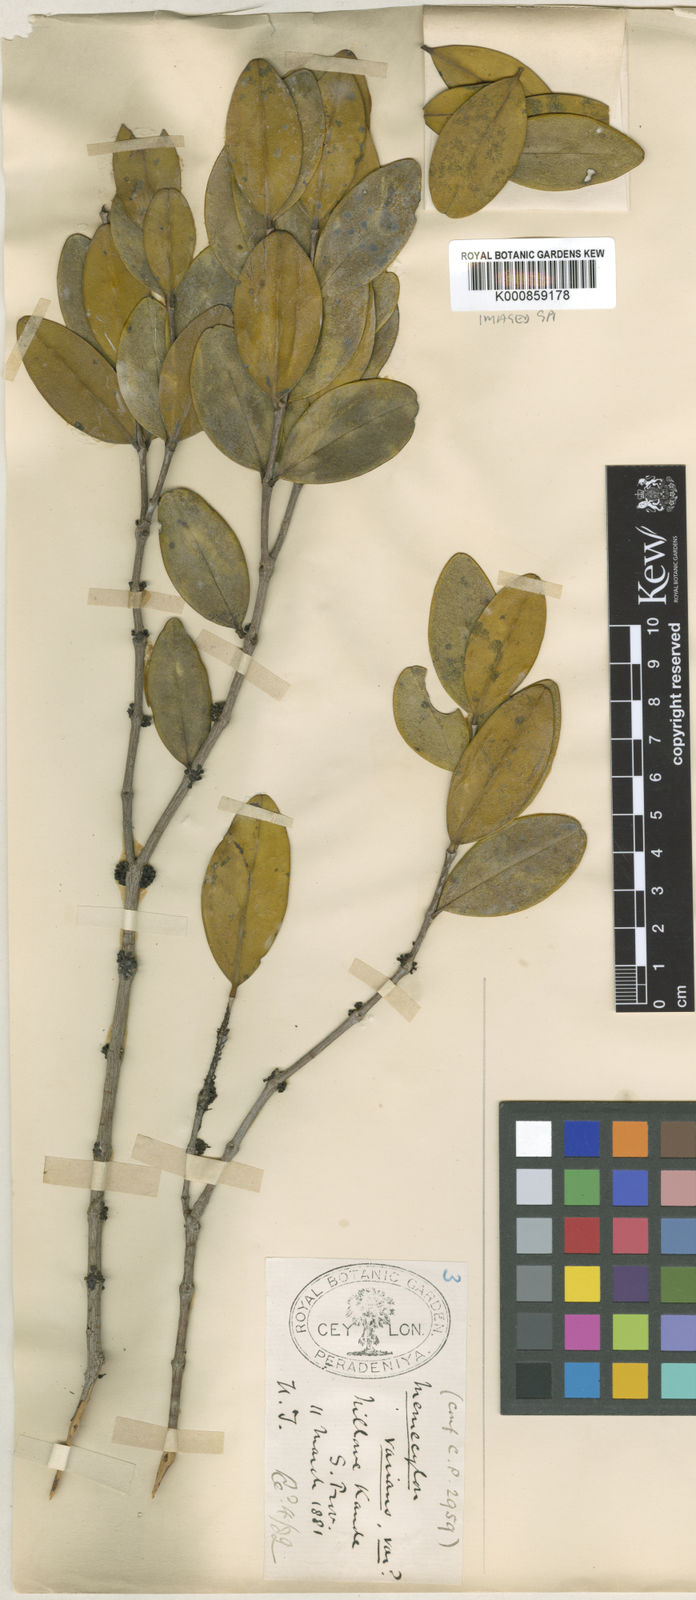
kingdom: Plantae
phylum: Tracheophyta
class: Magnoliopsida
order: Myrtales
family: Melastomataceae
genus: Memecylon
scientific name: Memecylon rotundatum
